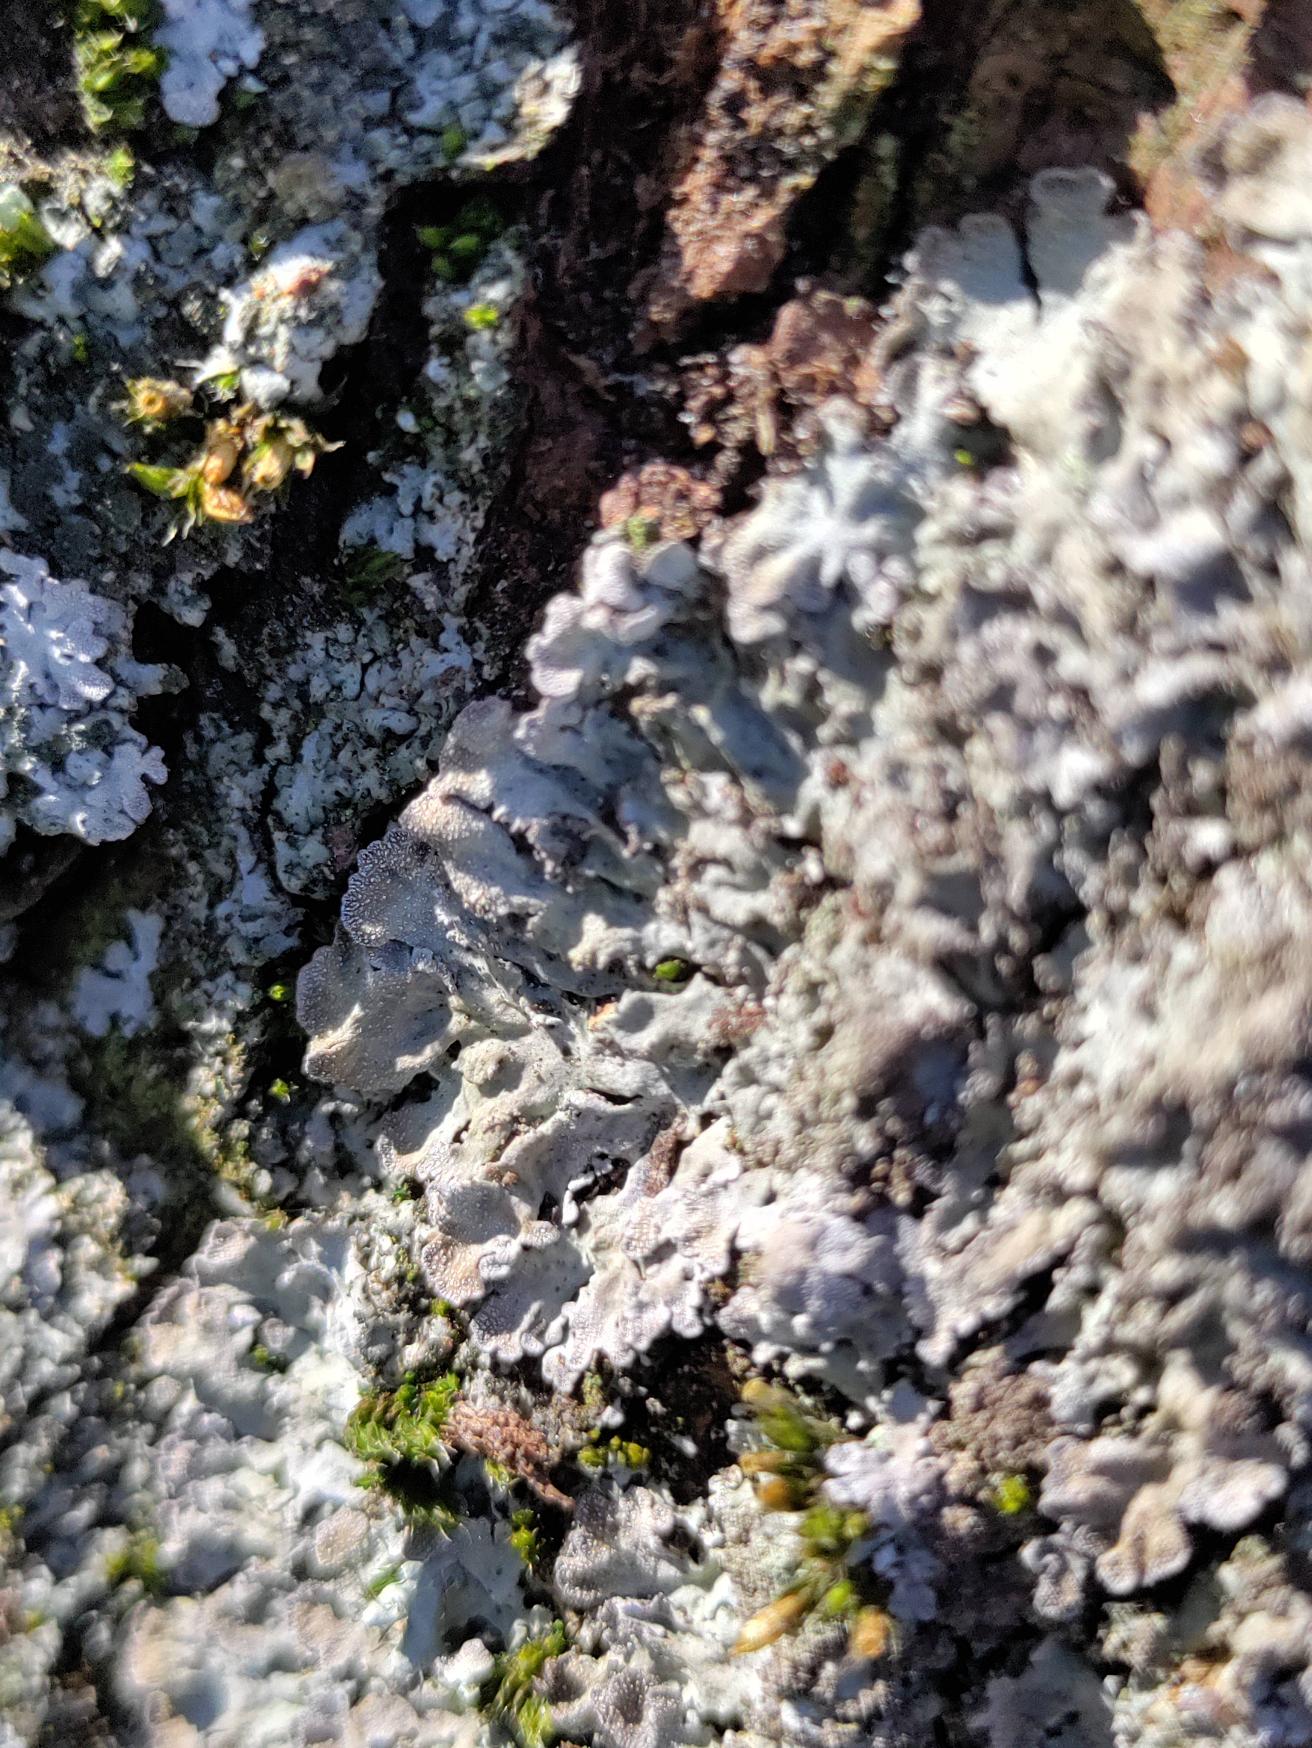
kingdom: Fungi
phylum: Ascomycota
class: Lecanoromycetes
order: Caliciales
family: Physciaceae
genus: Physconia
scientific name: Physconia
